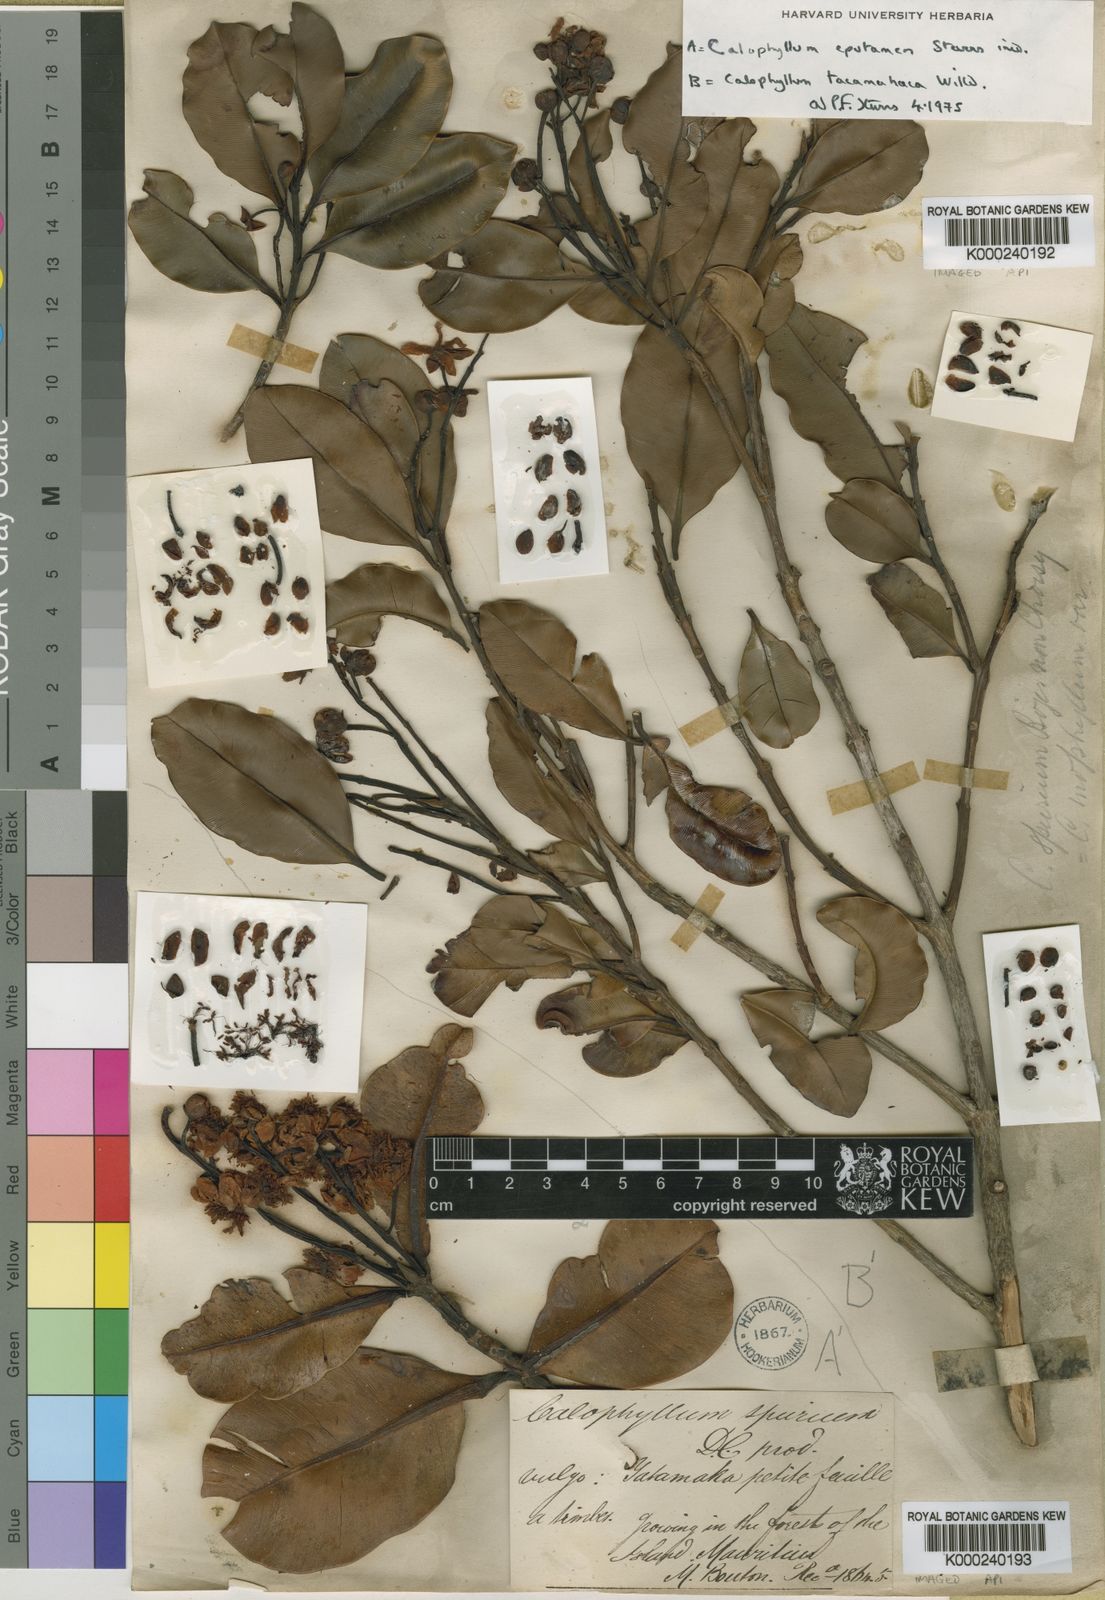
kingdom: Plantae
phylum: Tracheophyta
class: Magnoliopsida
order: Malpighiales
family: Calophyllaceae
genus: Calophyllum
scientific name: Calophyllum parviflorum
